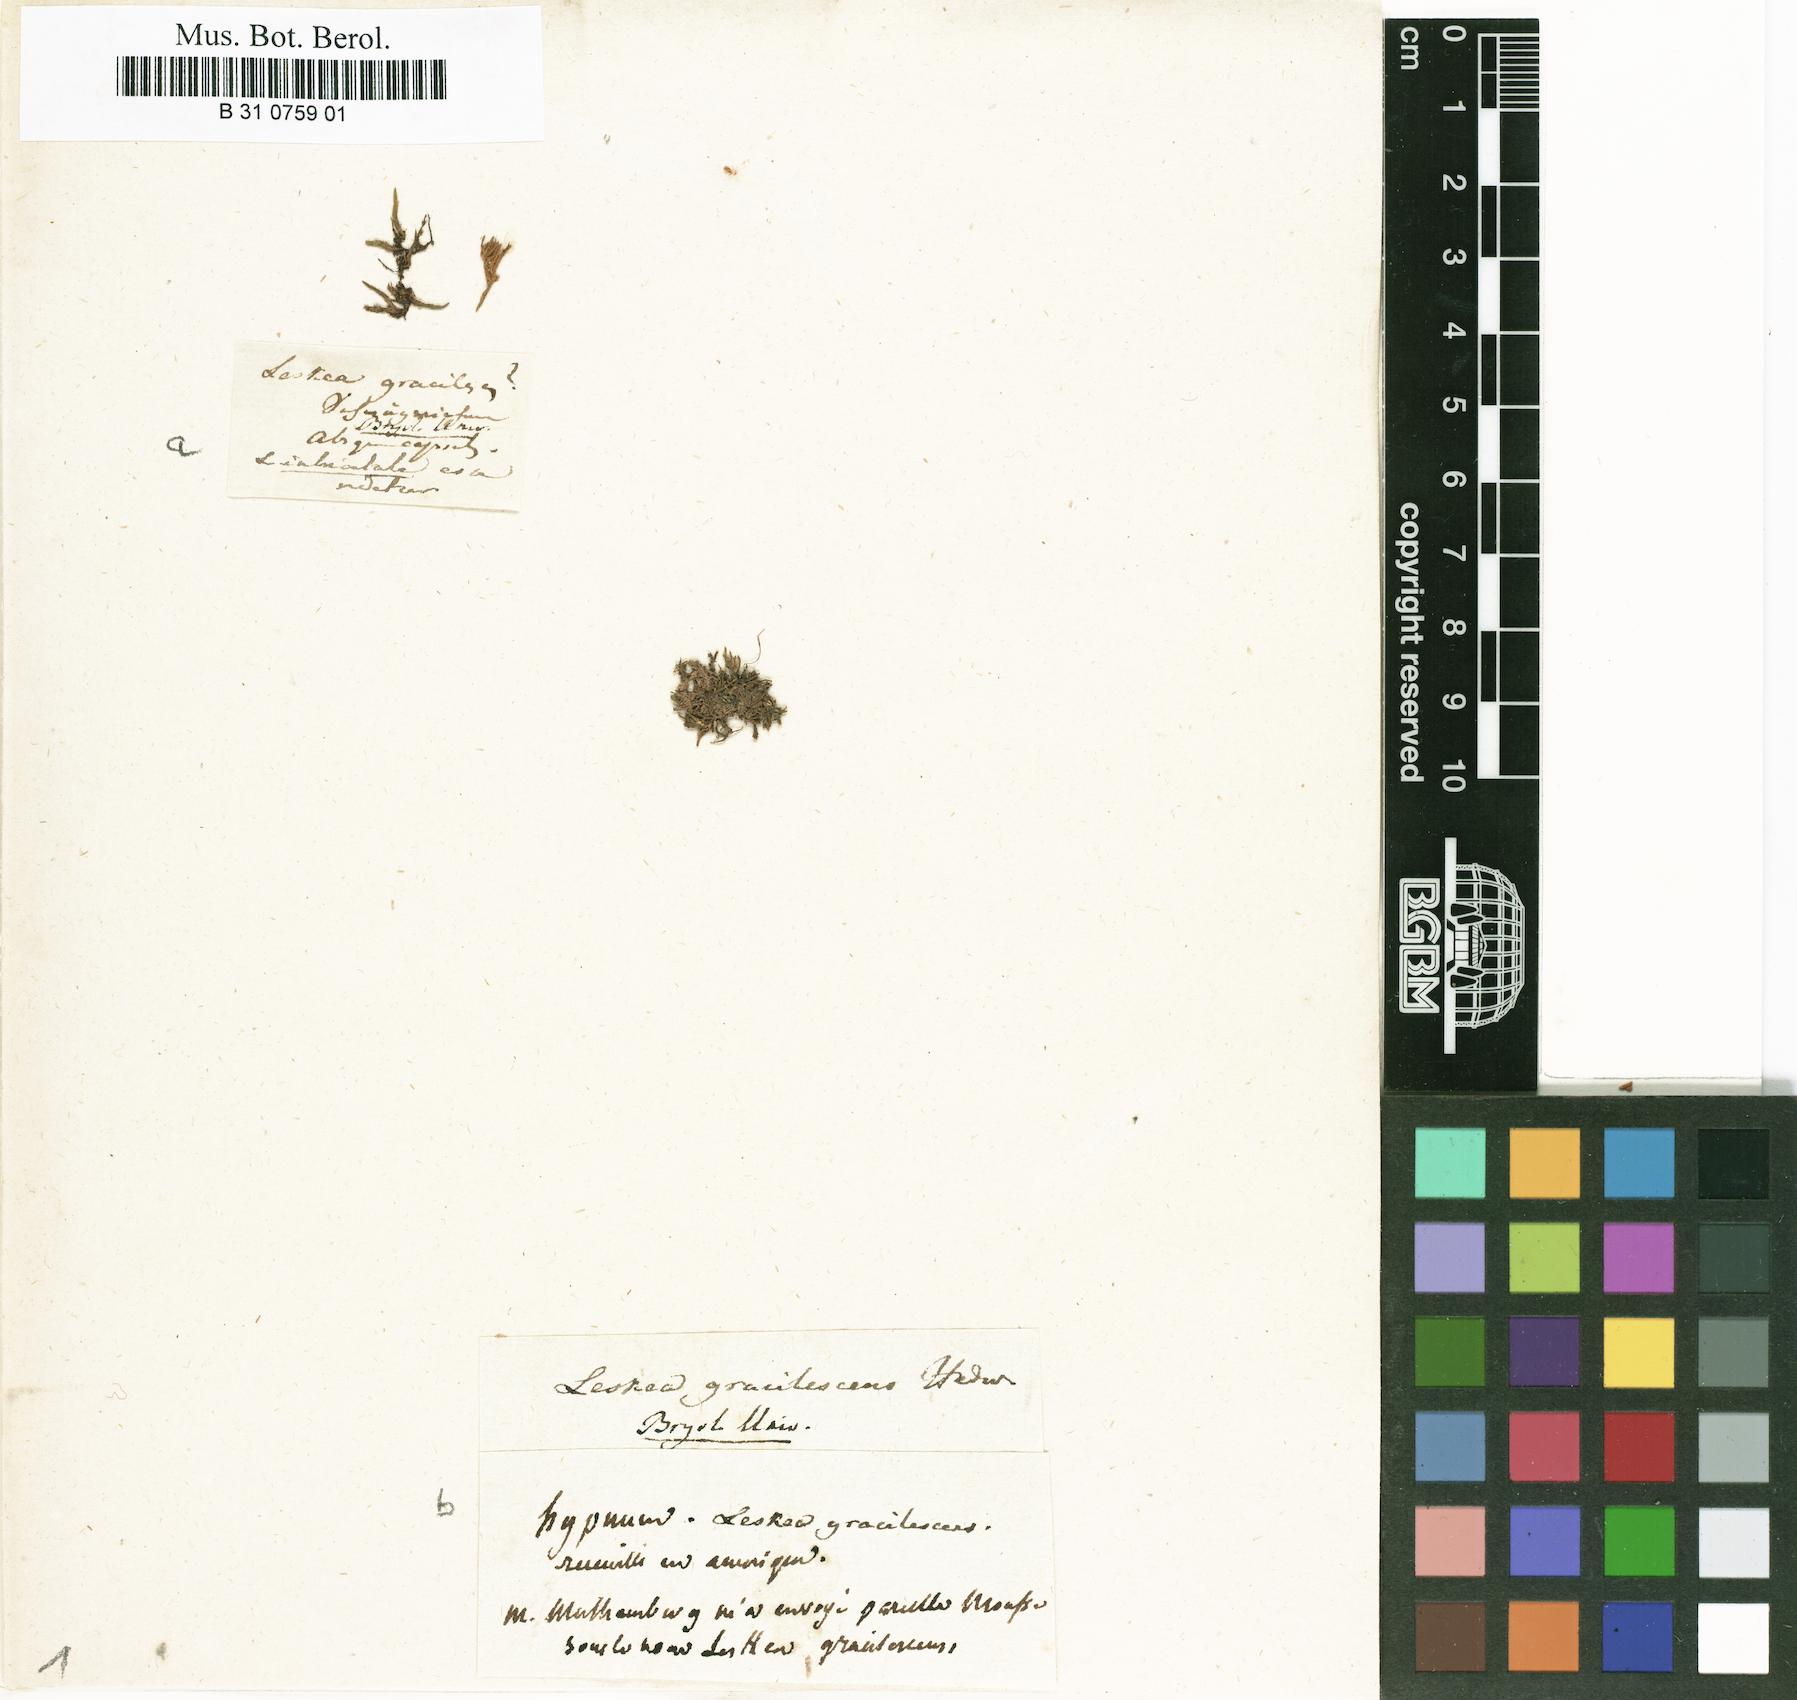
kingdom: Plantae
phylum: Bryophyta
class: Bryopsida
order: Hypnales
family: Leskeaceae
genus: Leskea
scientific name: Leskea gracilescens
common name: Common leske's moss
